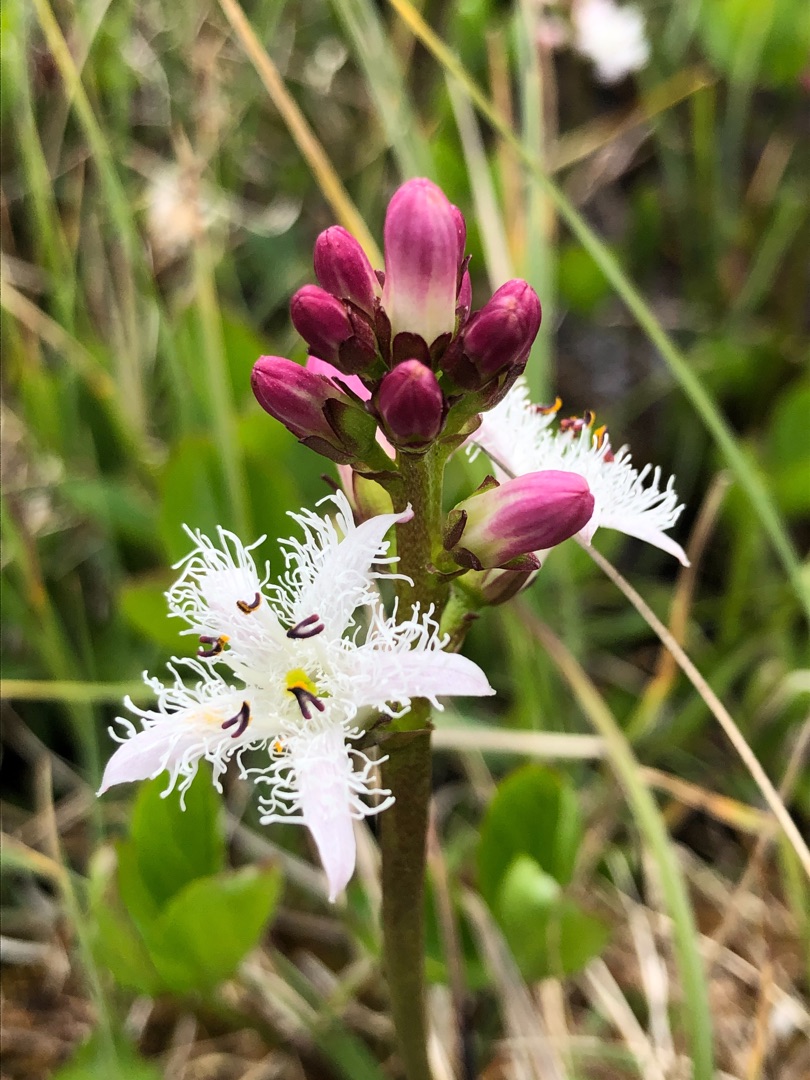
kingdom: Plantae
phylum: Tracheophyta
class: Magnoliopsida
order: Asterales
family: Menyanthaceae
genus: Menyanthes
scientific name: Menyanthes trifoliata
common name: Bukkeblad
